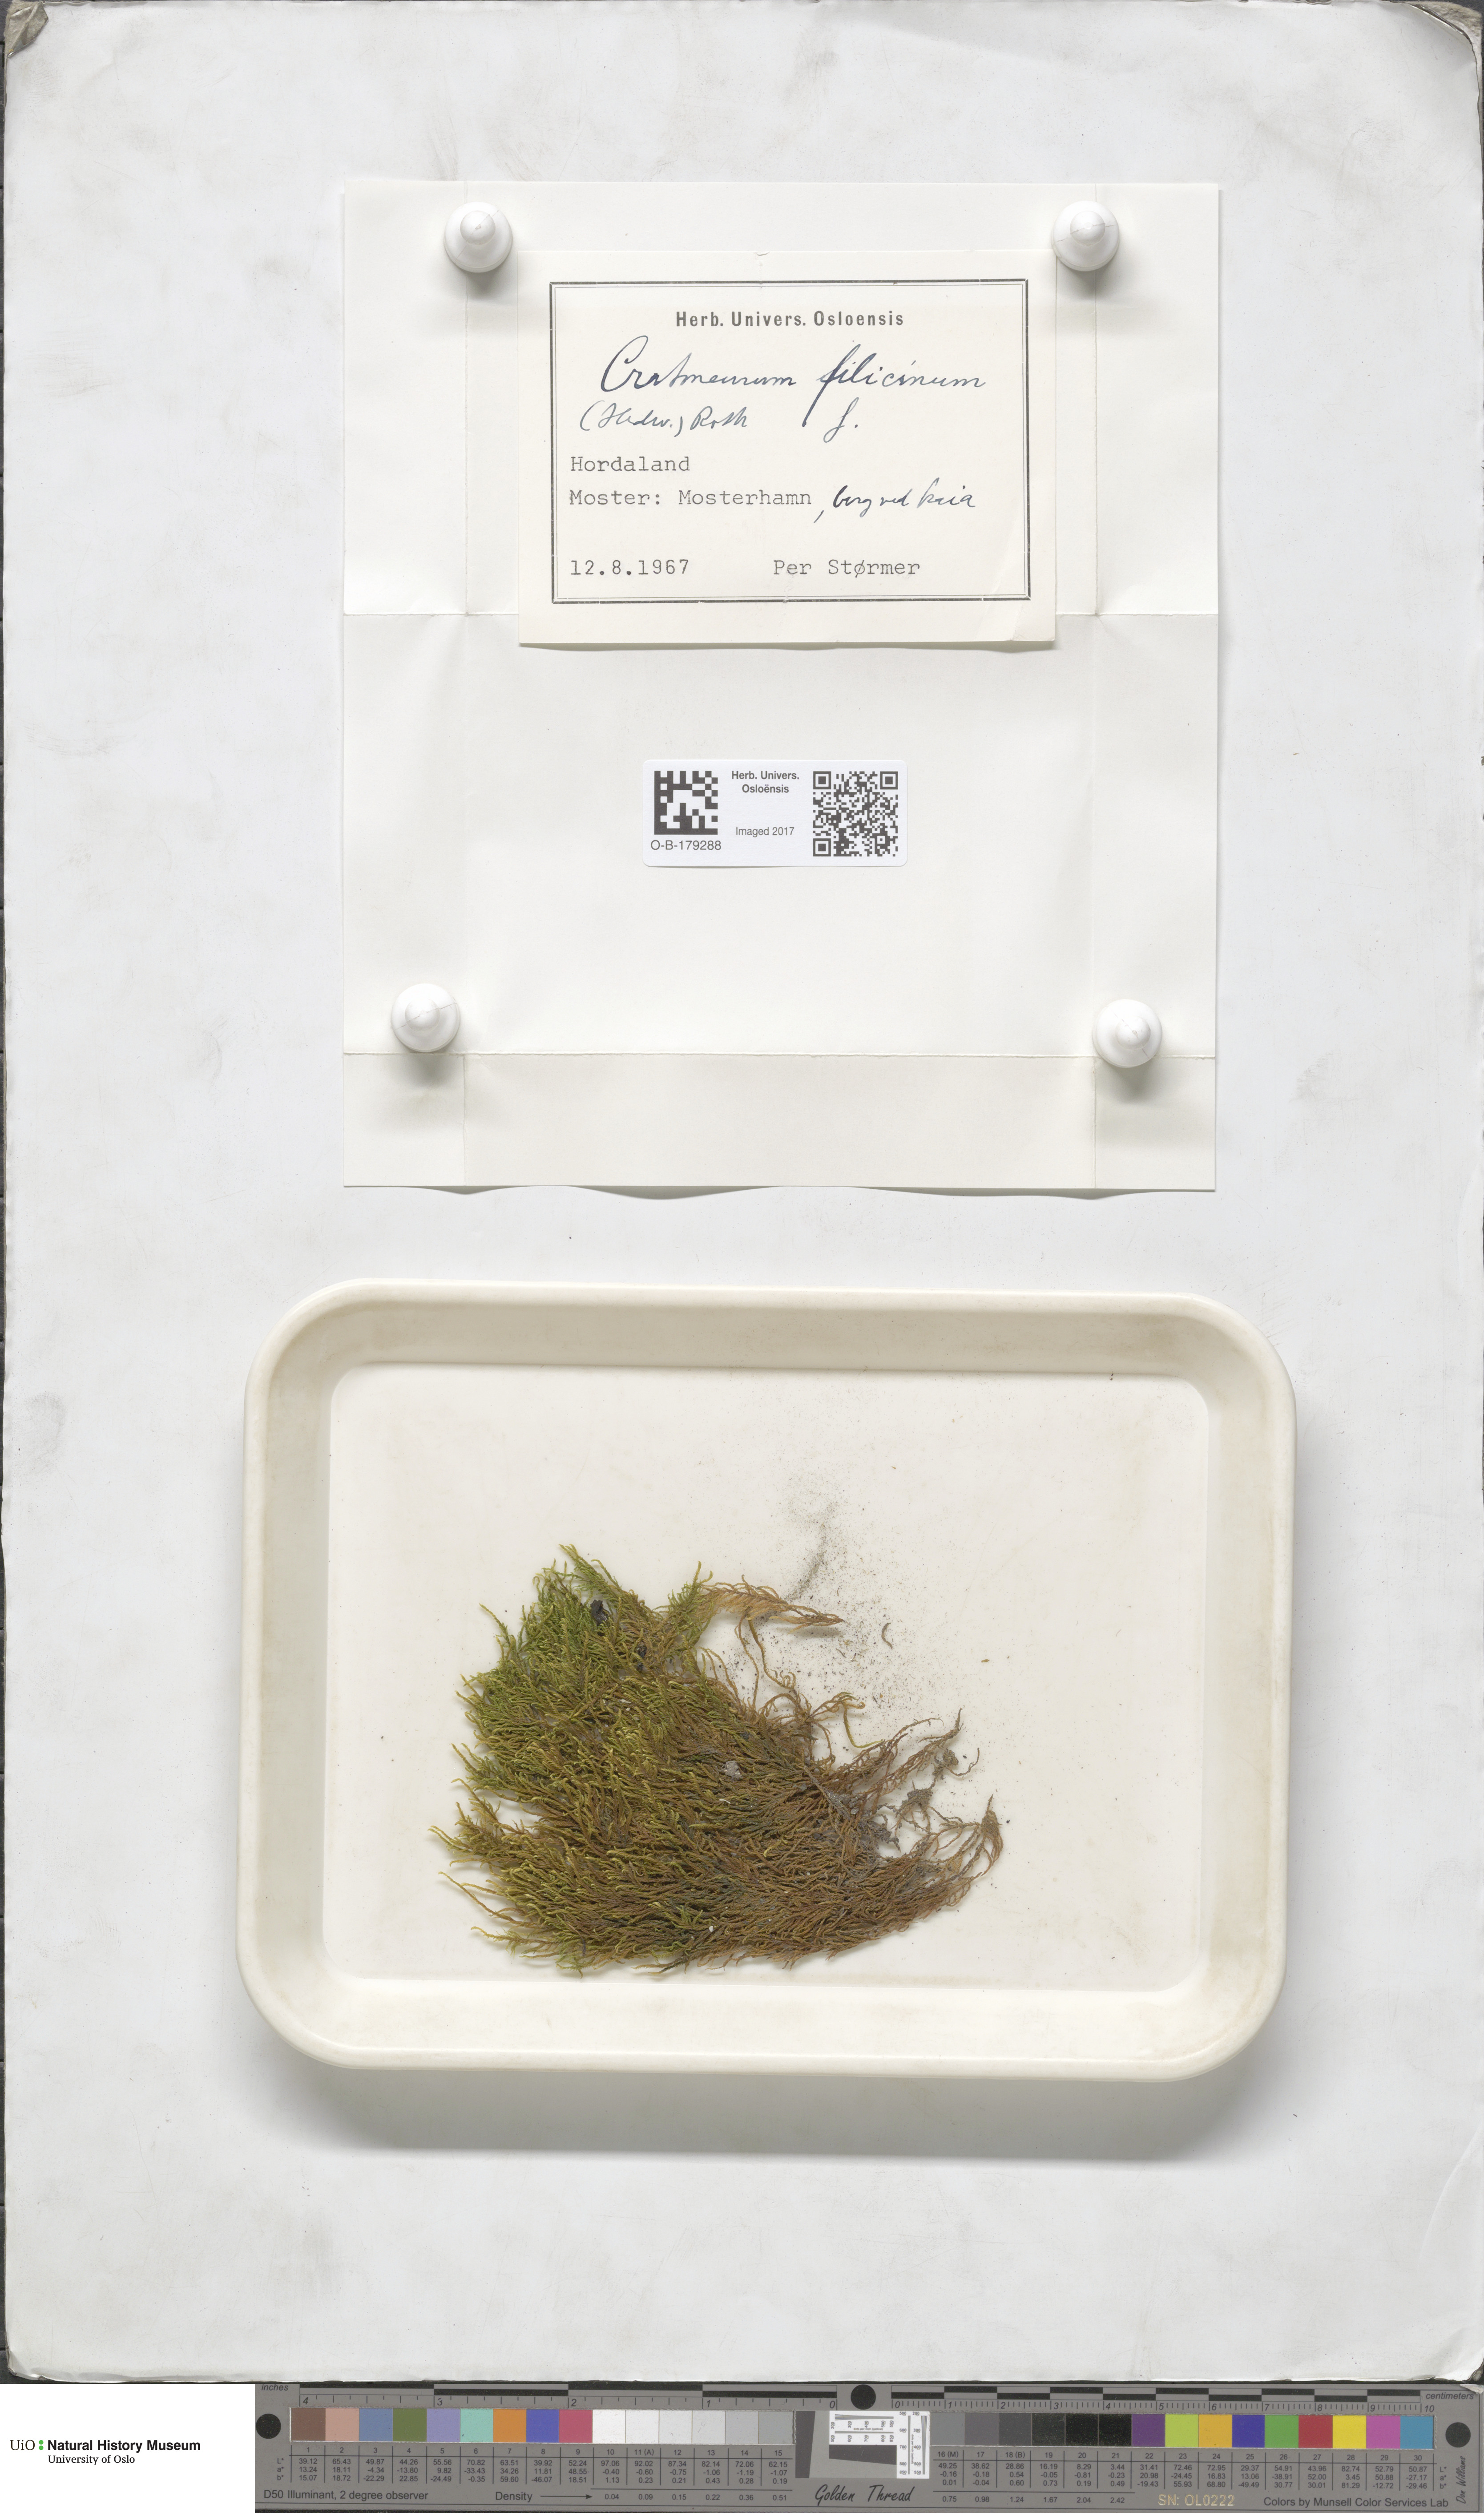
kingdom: Plantae
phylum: Bryophyta
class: Bryopsida
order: Hypnales
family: Amblystegiaceae
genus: Cratoneuron
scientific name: Cratoneuron filicinum
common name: Fern-leaved hook moss
